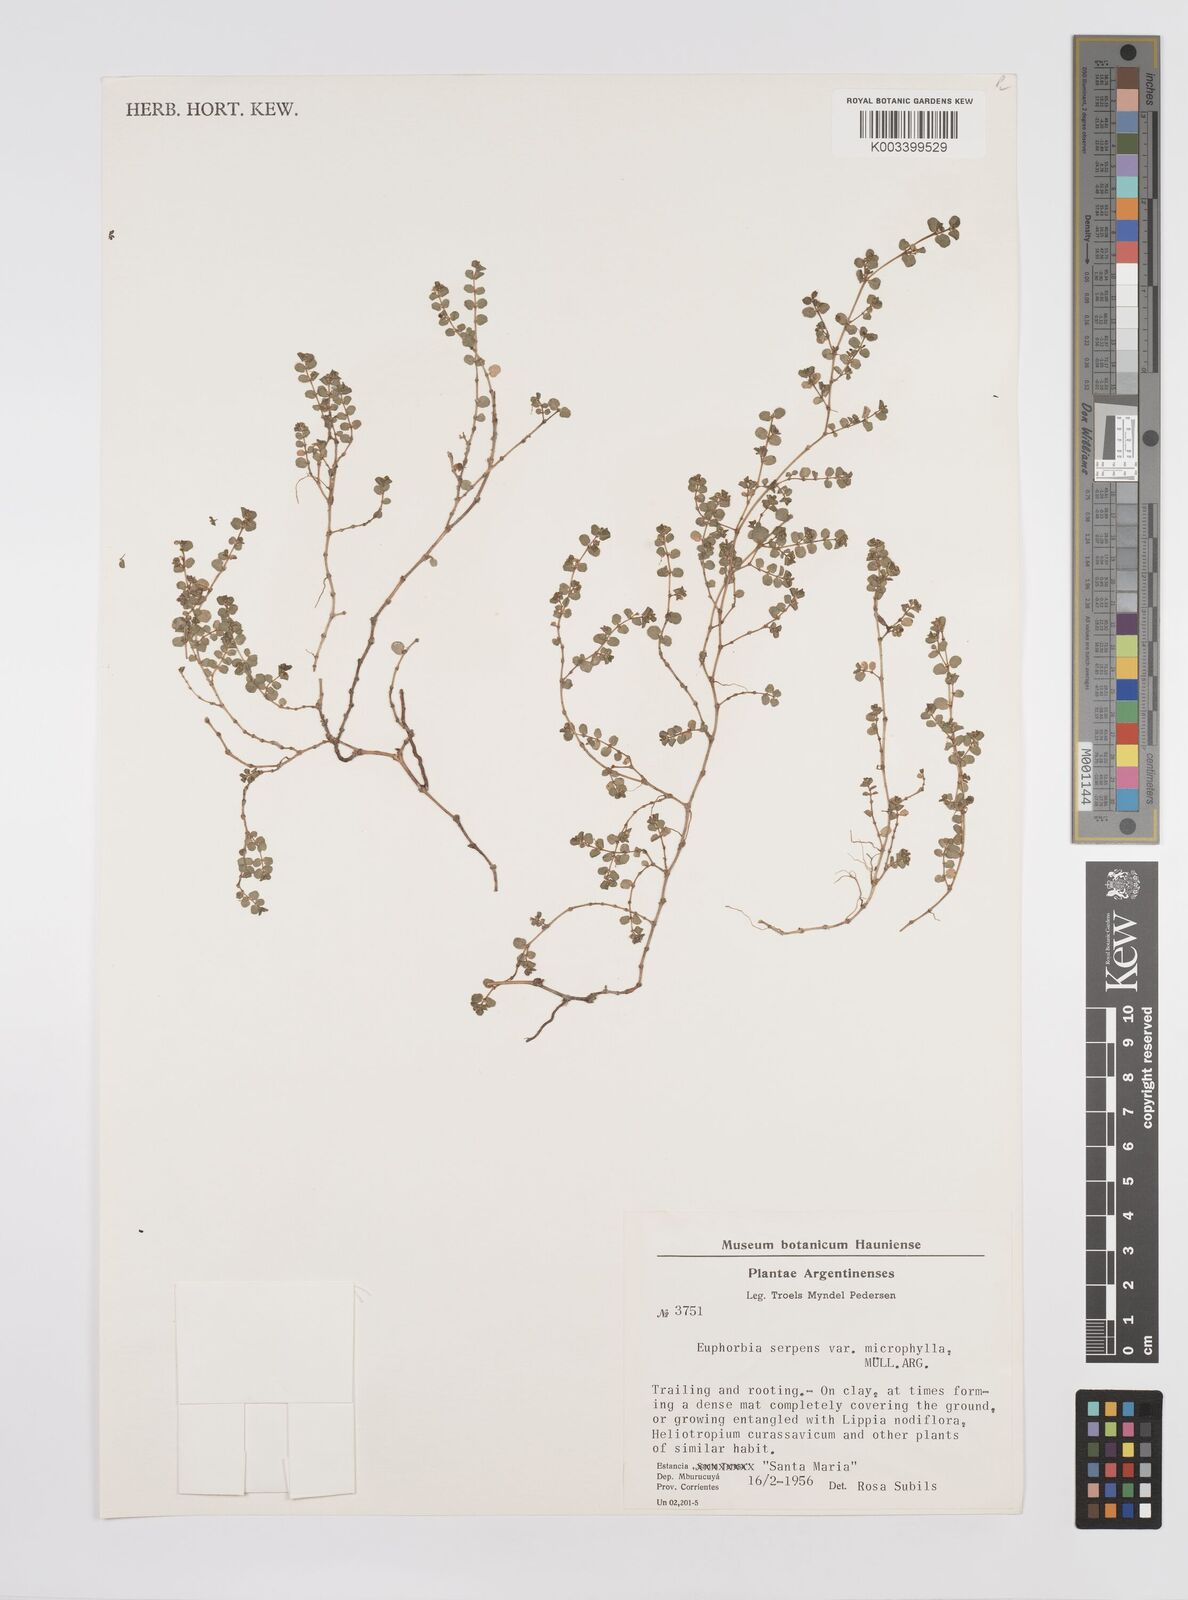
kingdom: Plantae
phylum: Tracheophyta
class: Magnoliopsida
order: Malpighiales
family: Euphorbiaceae
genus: Euphorbia
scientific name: Euphorbia serpens
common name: Matted sandmat
